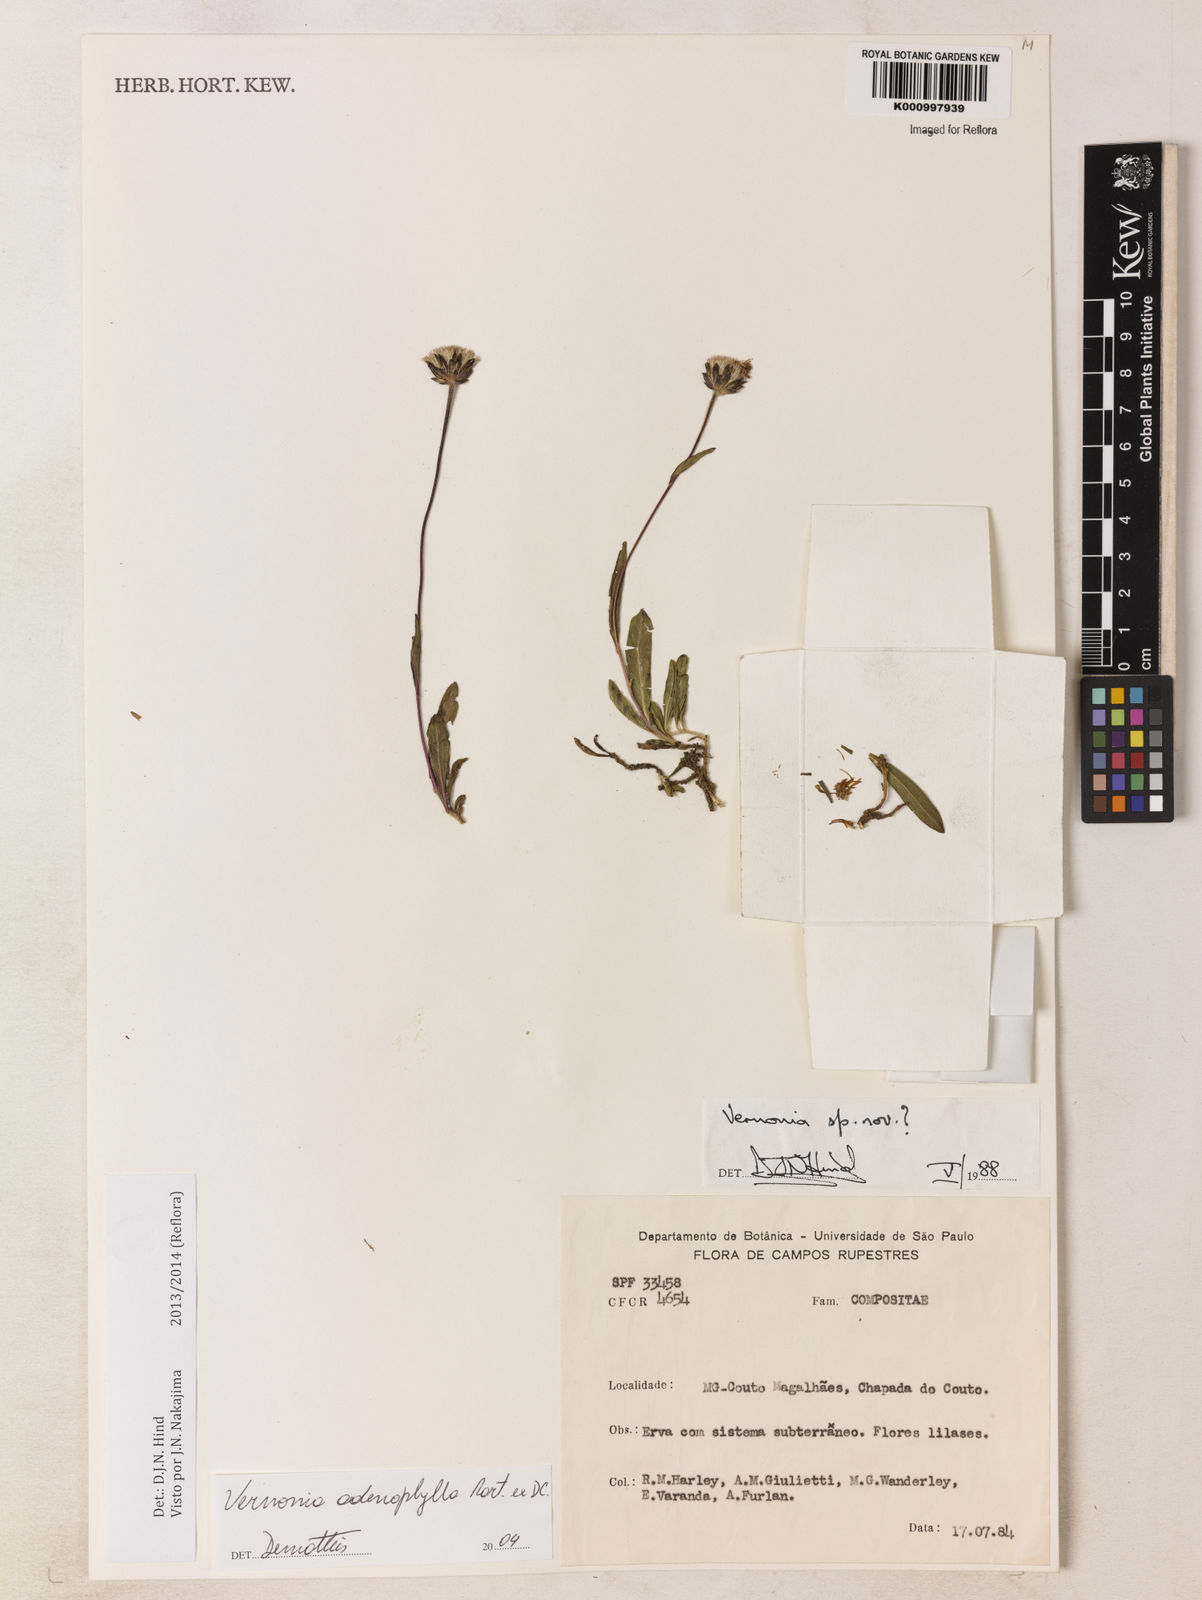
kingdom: Plantae
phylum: Tracheophyta
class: Magnoliopsida
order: Asterales
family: Asteraceae
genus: Lessingianthus
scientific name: Lessingianthus adenophyllus
